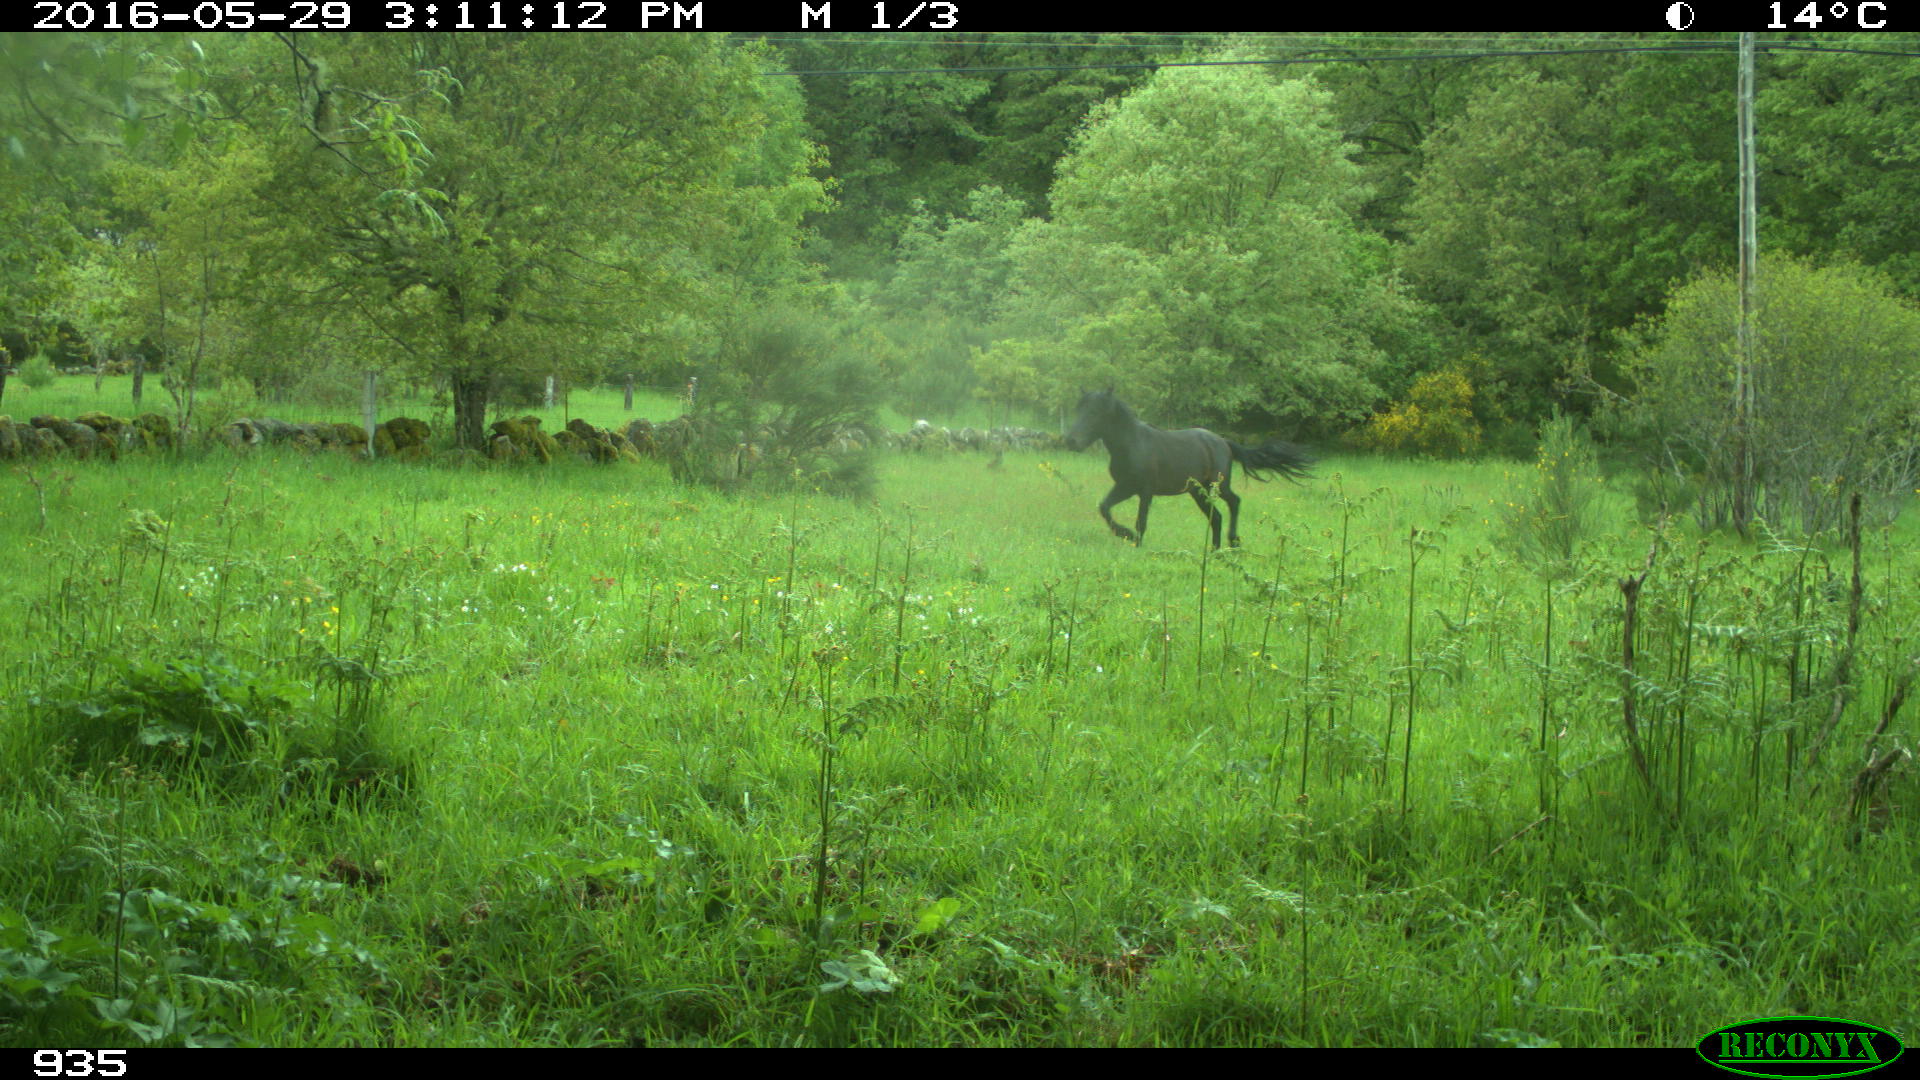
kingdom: Animalia
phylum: Chordata
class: Mammalia
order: Perissodactyla
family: Equidae
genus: Equus
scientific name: Equus caballus
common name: Horse
